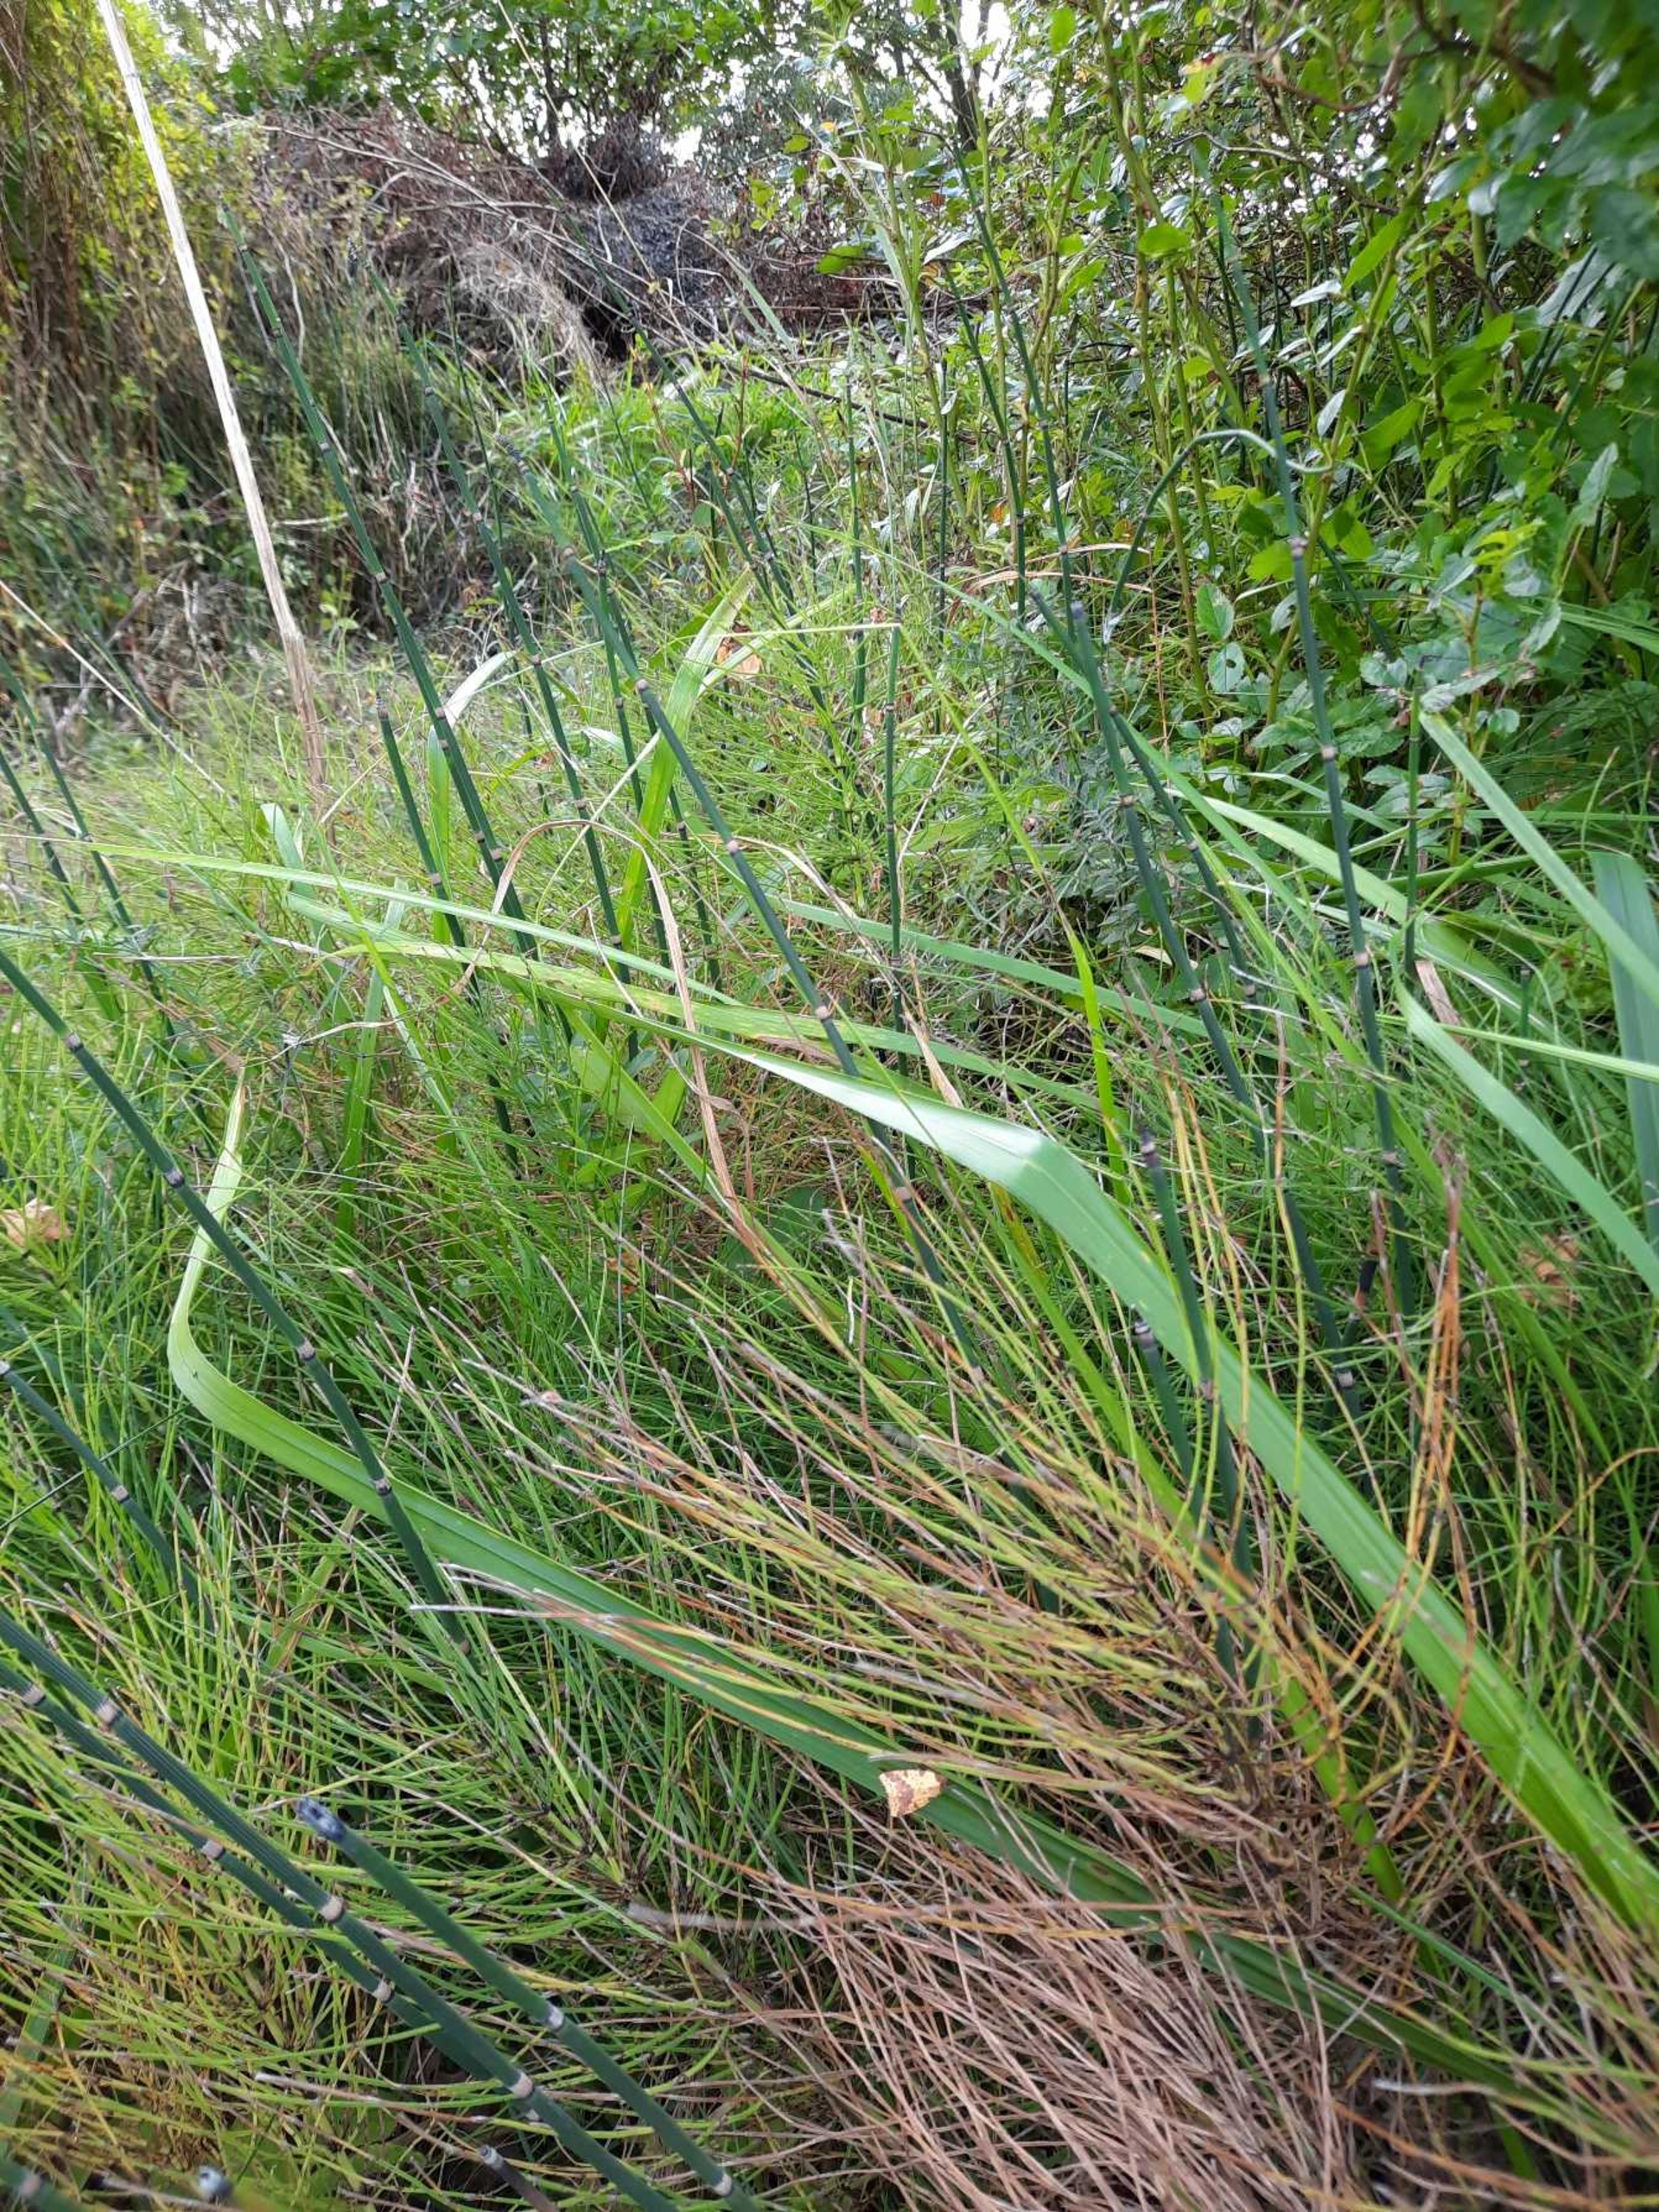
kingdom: Plantae
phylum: Tracheophyta
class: Polypodiopsida
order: Equisetales
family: Equisetaceae
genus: Equisetum
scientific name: Equisetum hyemale
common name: Skavgræs
